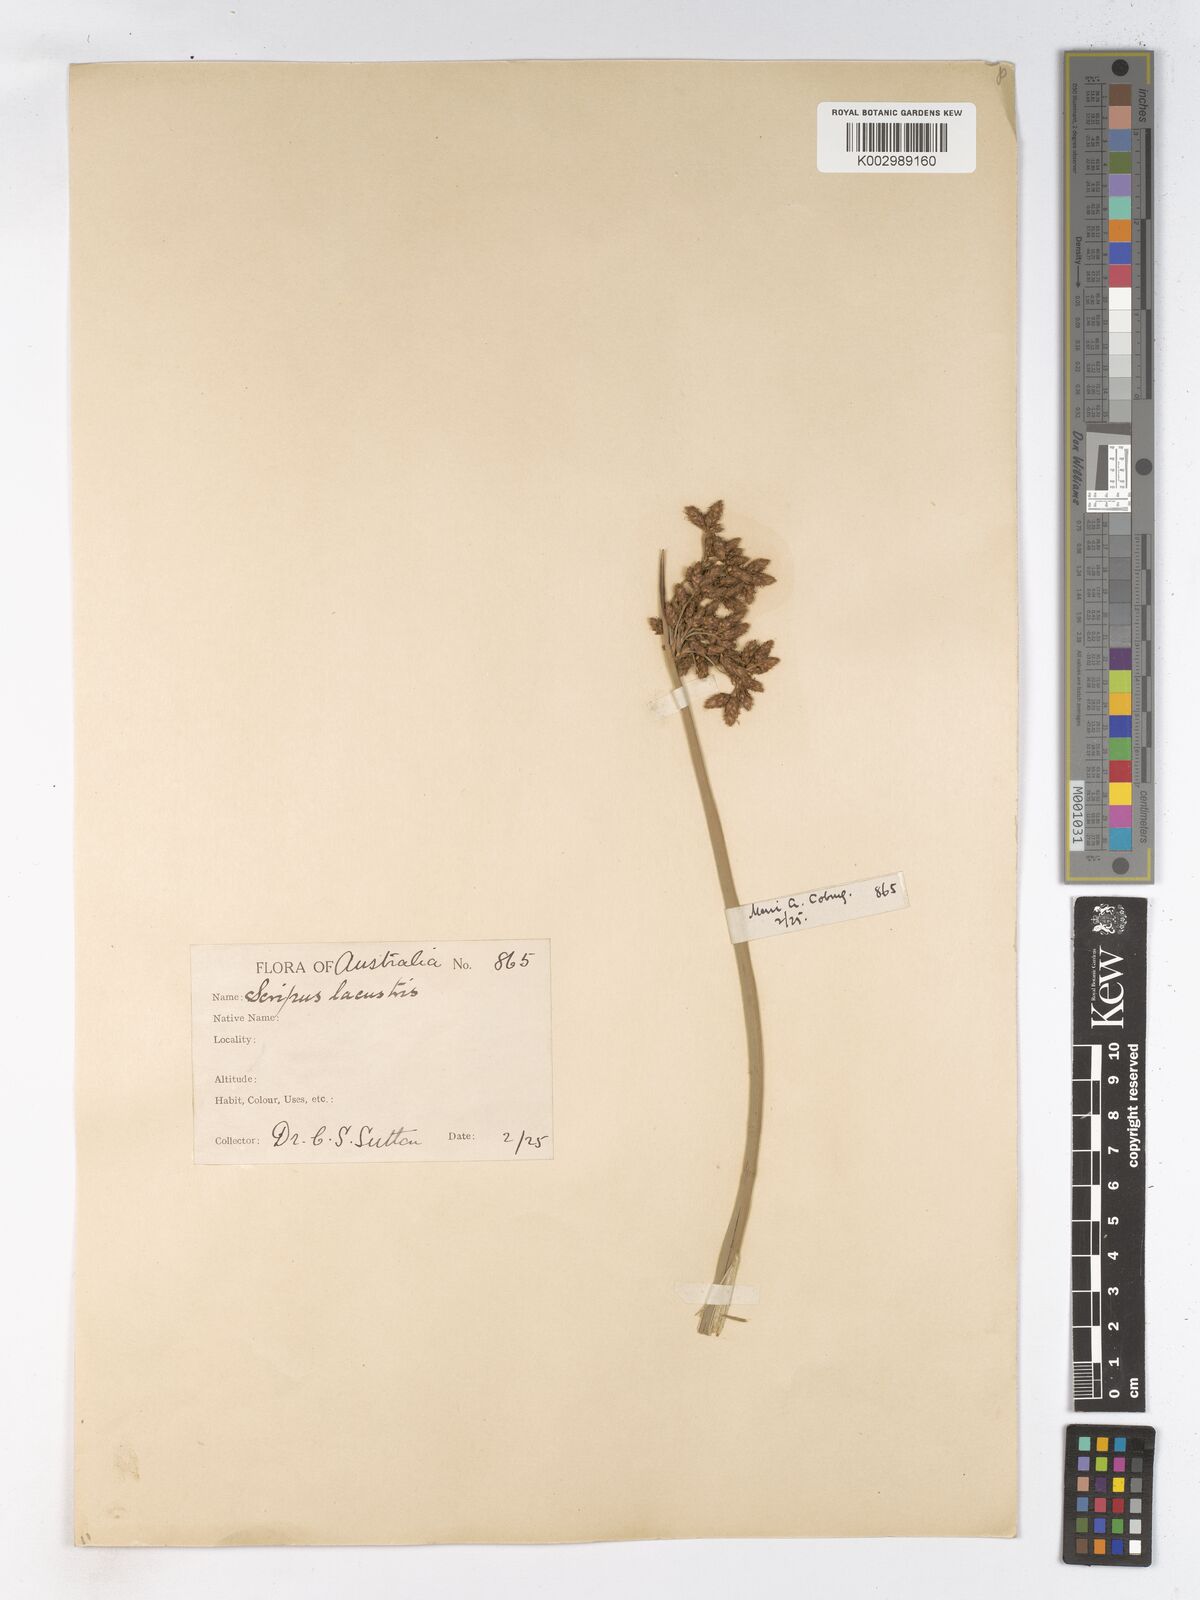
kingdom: Plantae
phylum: Tracheophyta
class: Liliopsida
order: Poales
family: Cyperaceae
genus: Schoenoplectus
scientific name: Schoenoplectus lacustris
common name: Common club-rush
